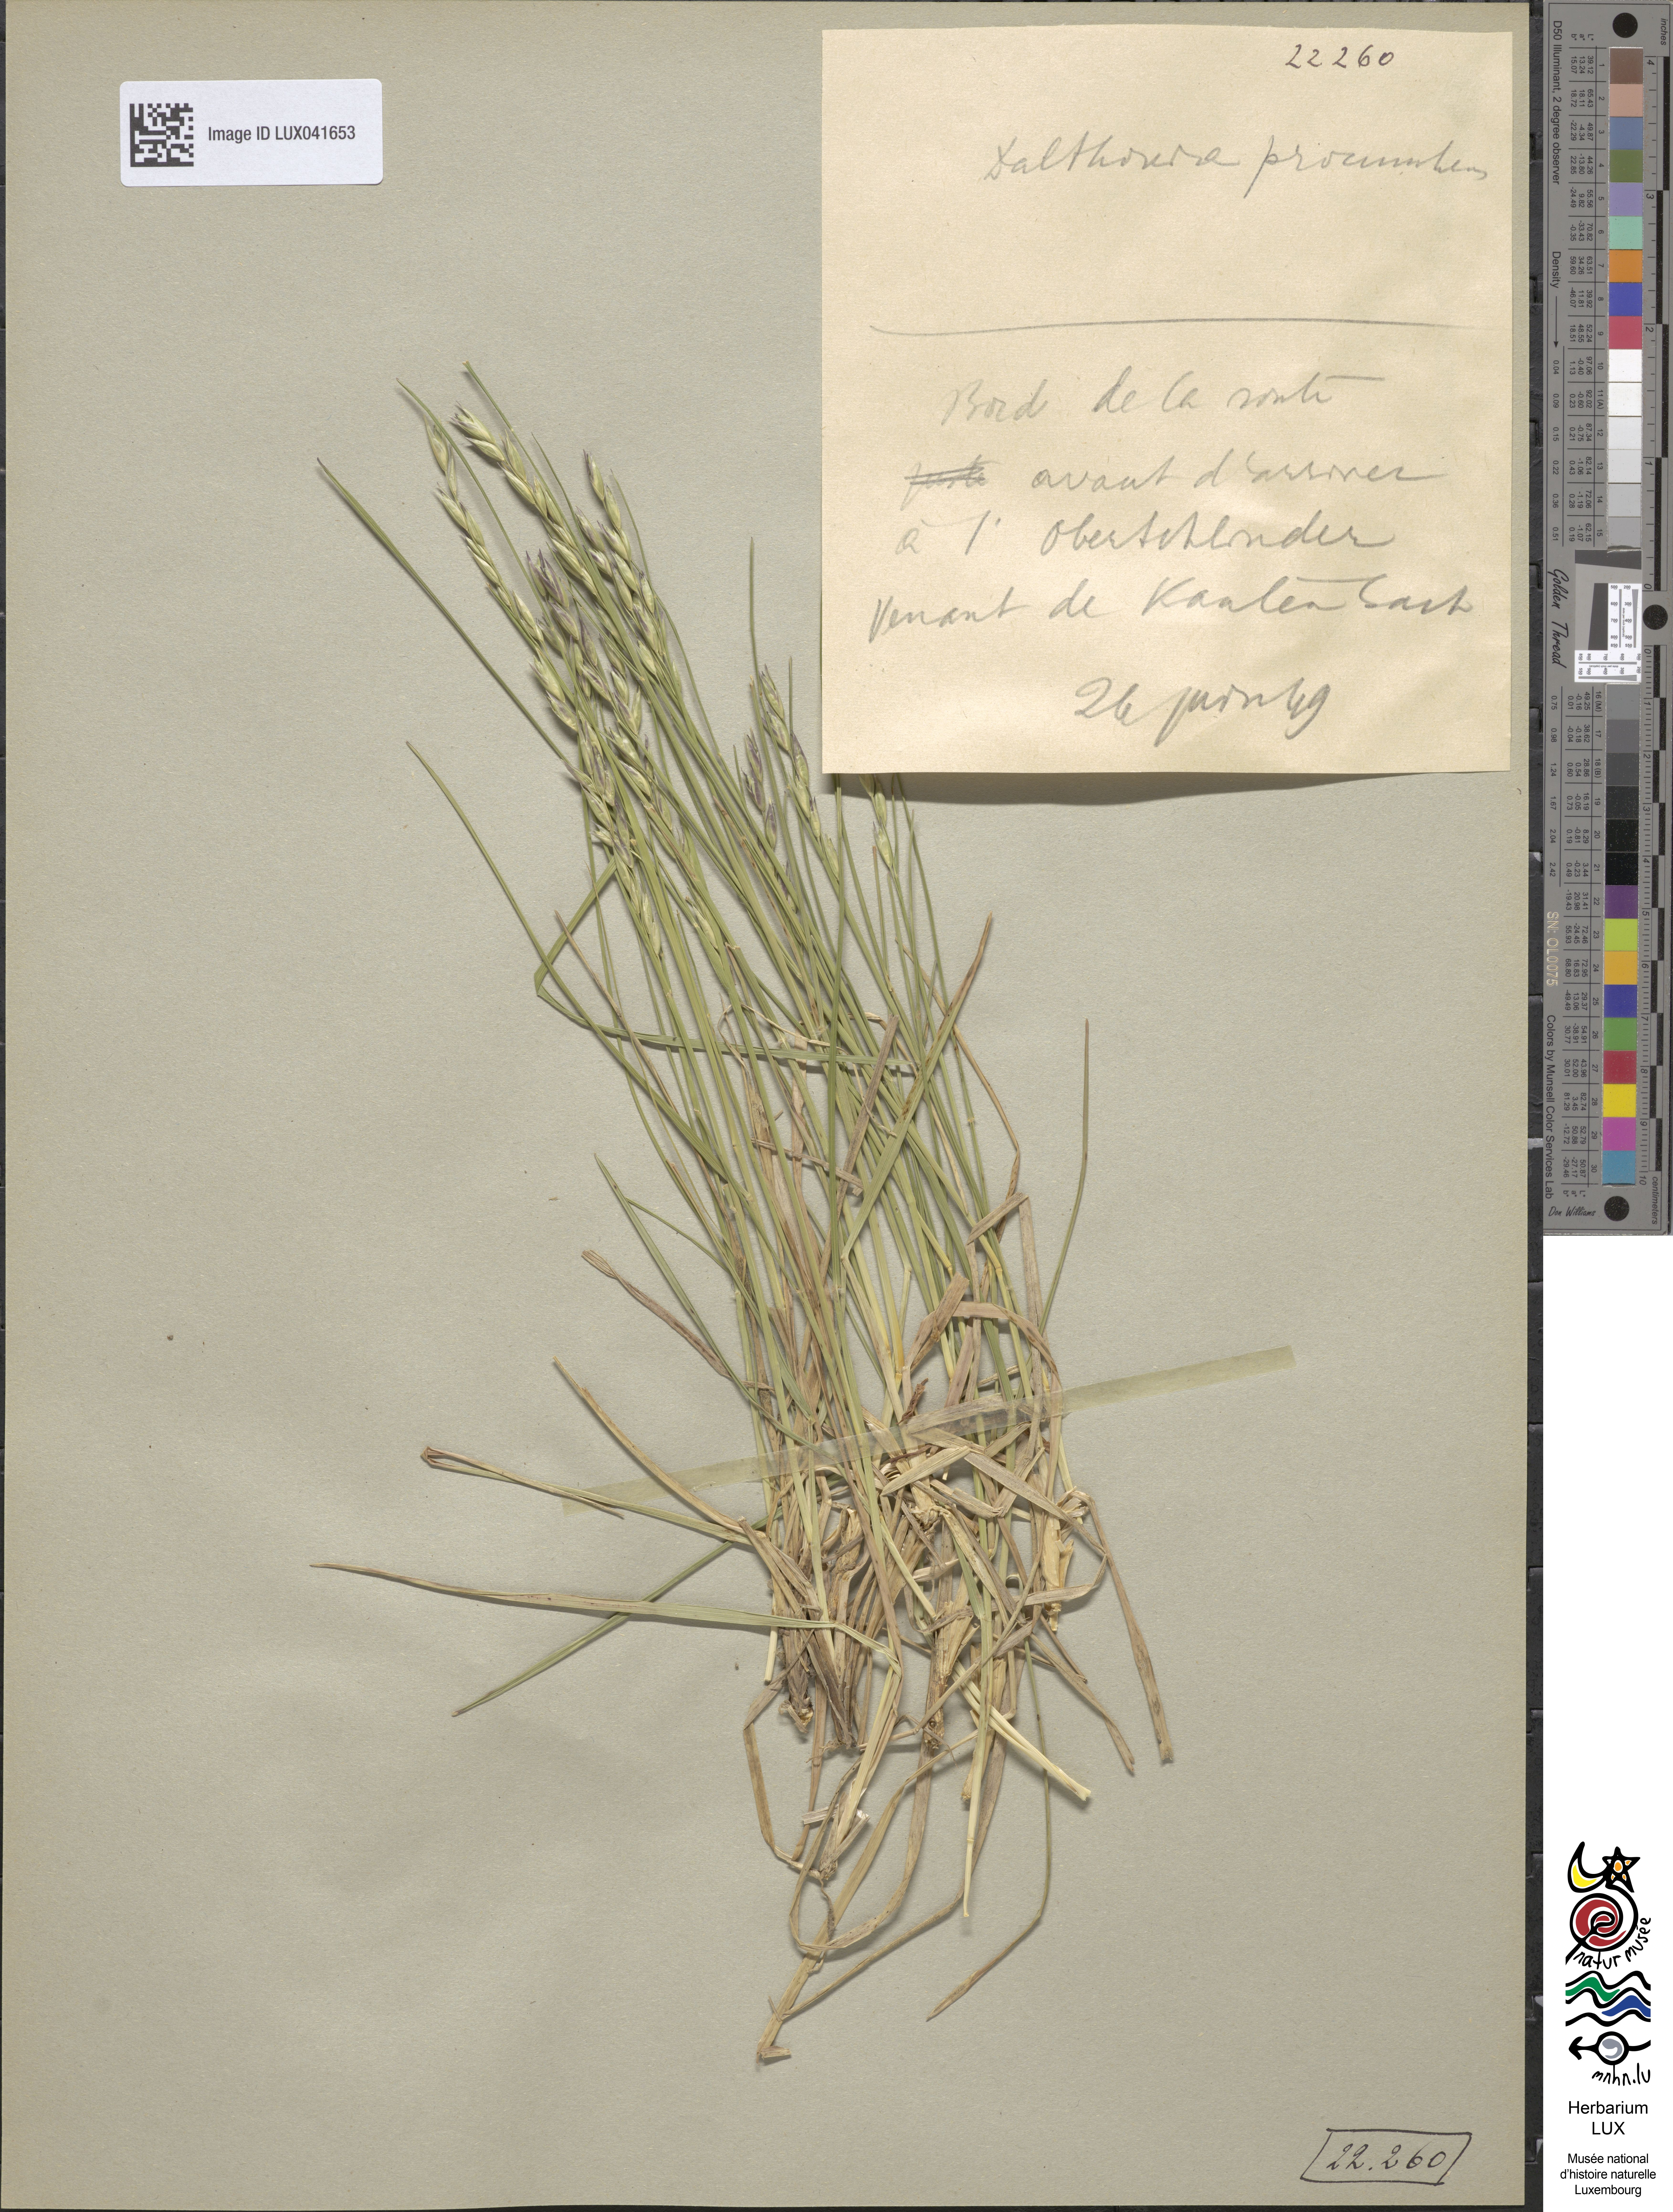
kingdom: Plantae
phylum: Tracheophyta
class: Liliopsida
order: Poales
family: Poaceae
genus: Danthonia
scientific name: Danthonia decumbens
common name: Common heathgrass
